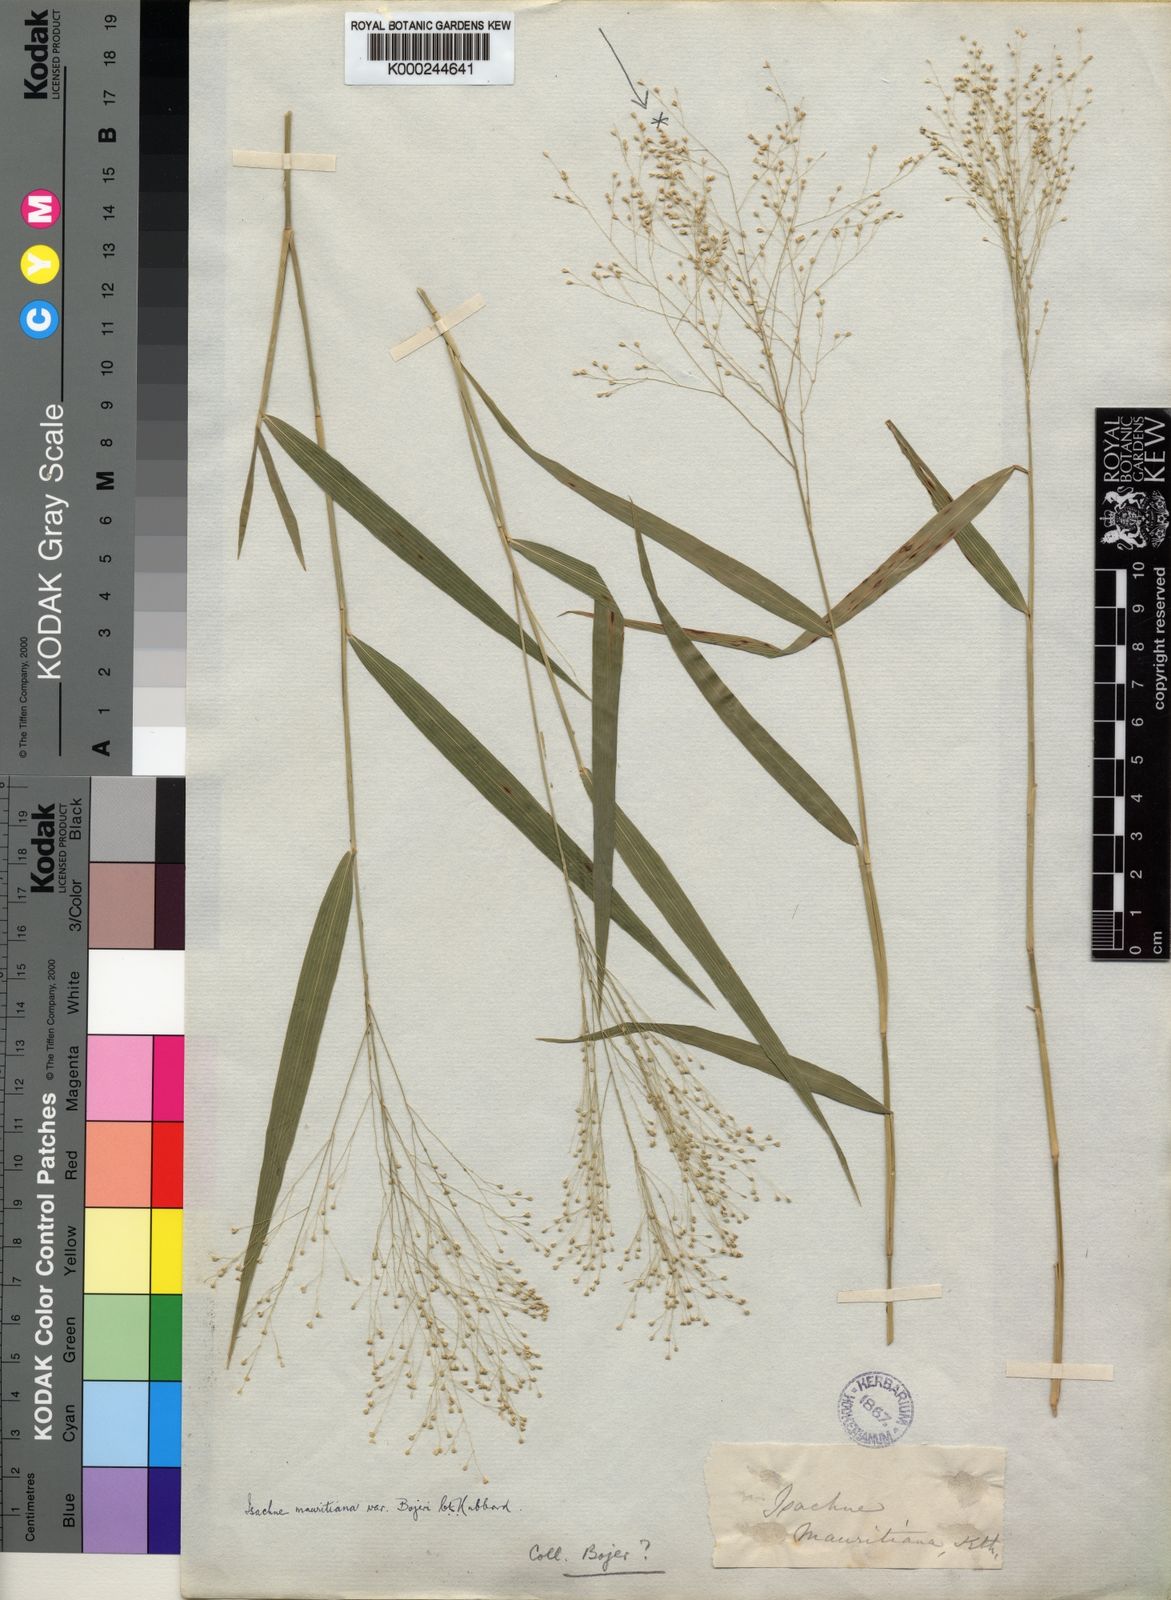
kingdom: Plantae
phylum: Tracheophyta
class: Liliopsida
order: Poales
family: Poaceae
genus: Isachne
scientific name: Isachne mauritiana
